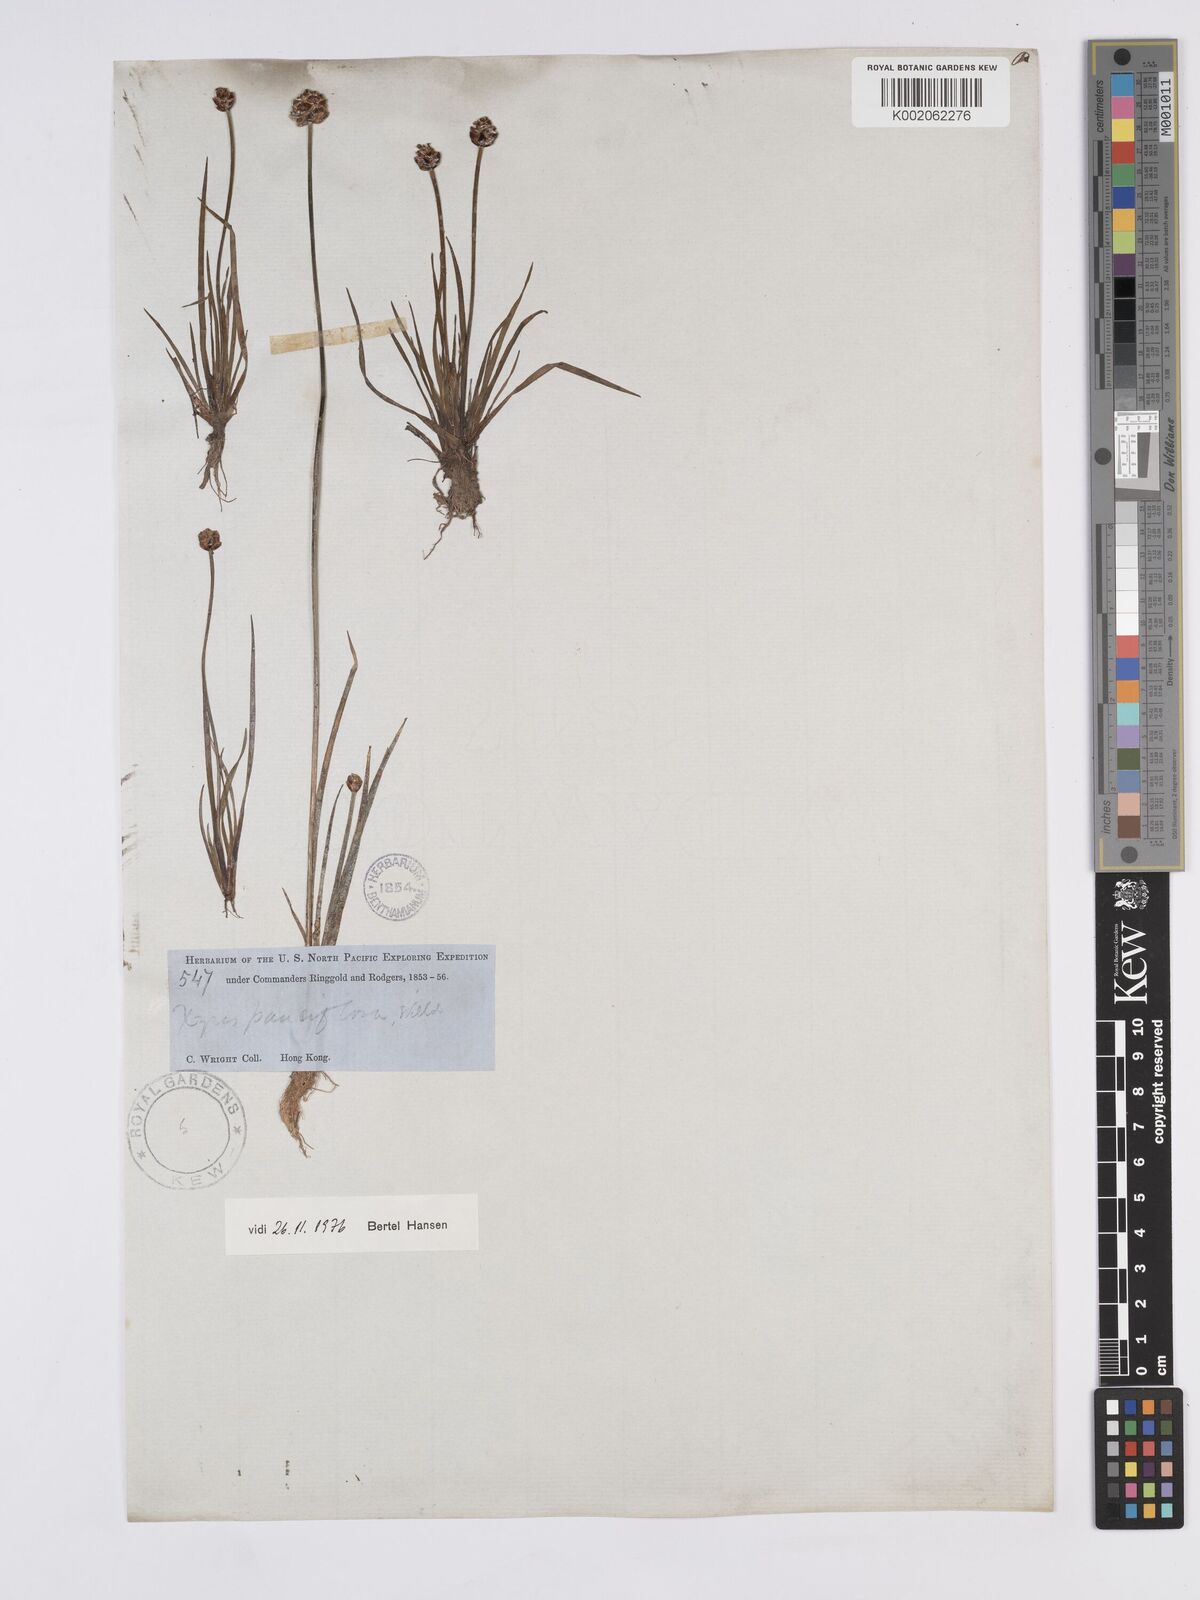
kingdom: Plantae
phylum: Tracheophyta
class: Liliopsida
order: Poales
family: Xyridaceae
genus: Xyris
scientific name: Xyris pauciflora
